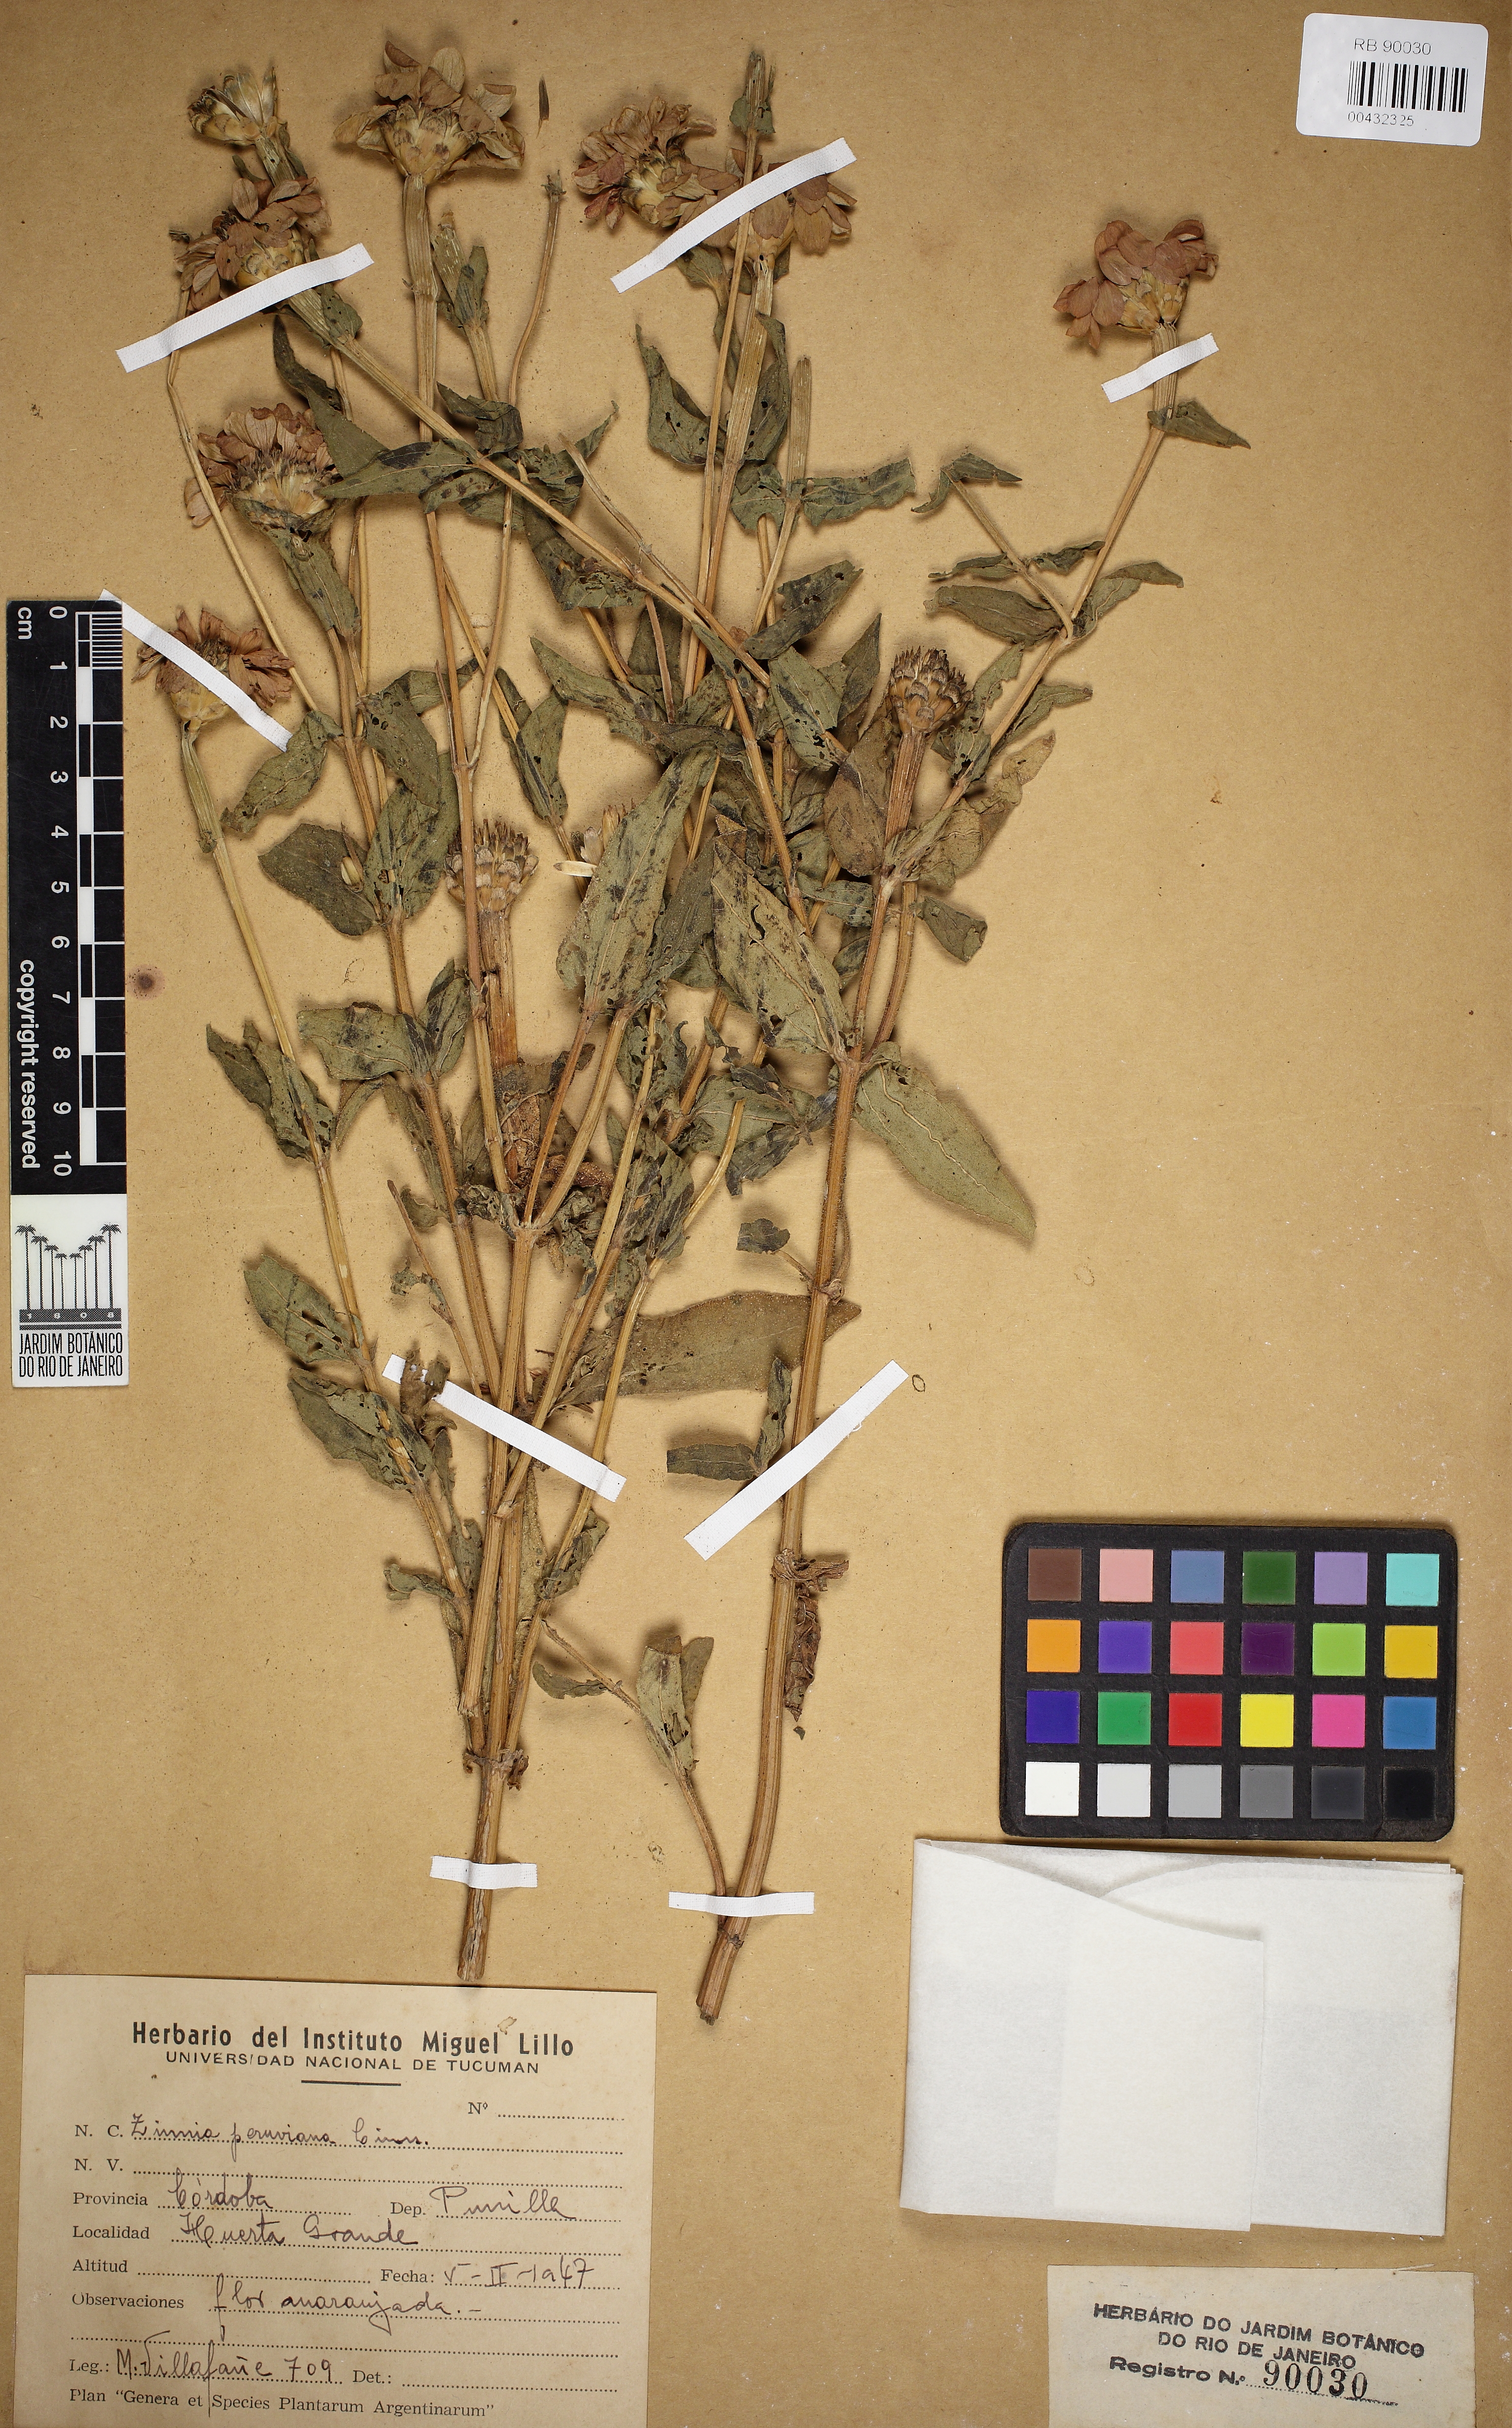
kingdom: Plantae
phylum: Tracheophyta
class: Magnoliopsida
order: Asterales
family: Asteraceae
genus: Zinnia
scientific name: Zinnia peruviana
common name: Peruvian zinnia
